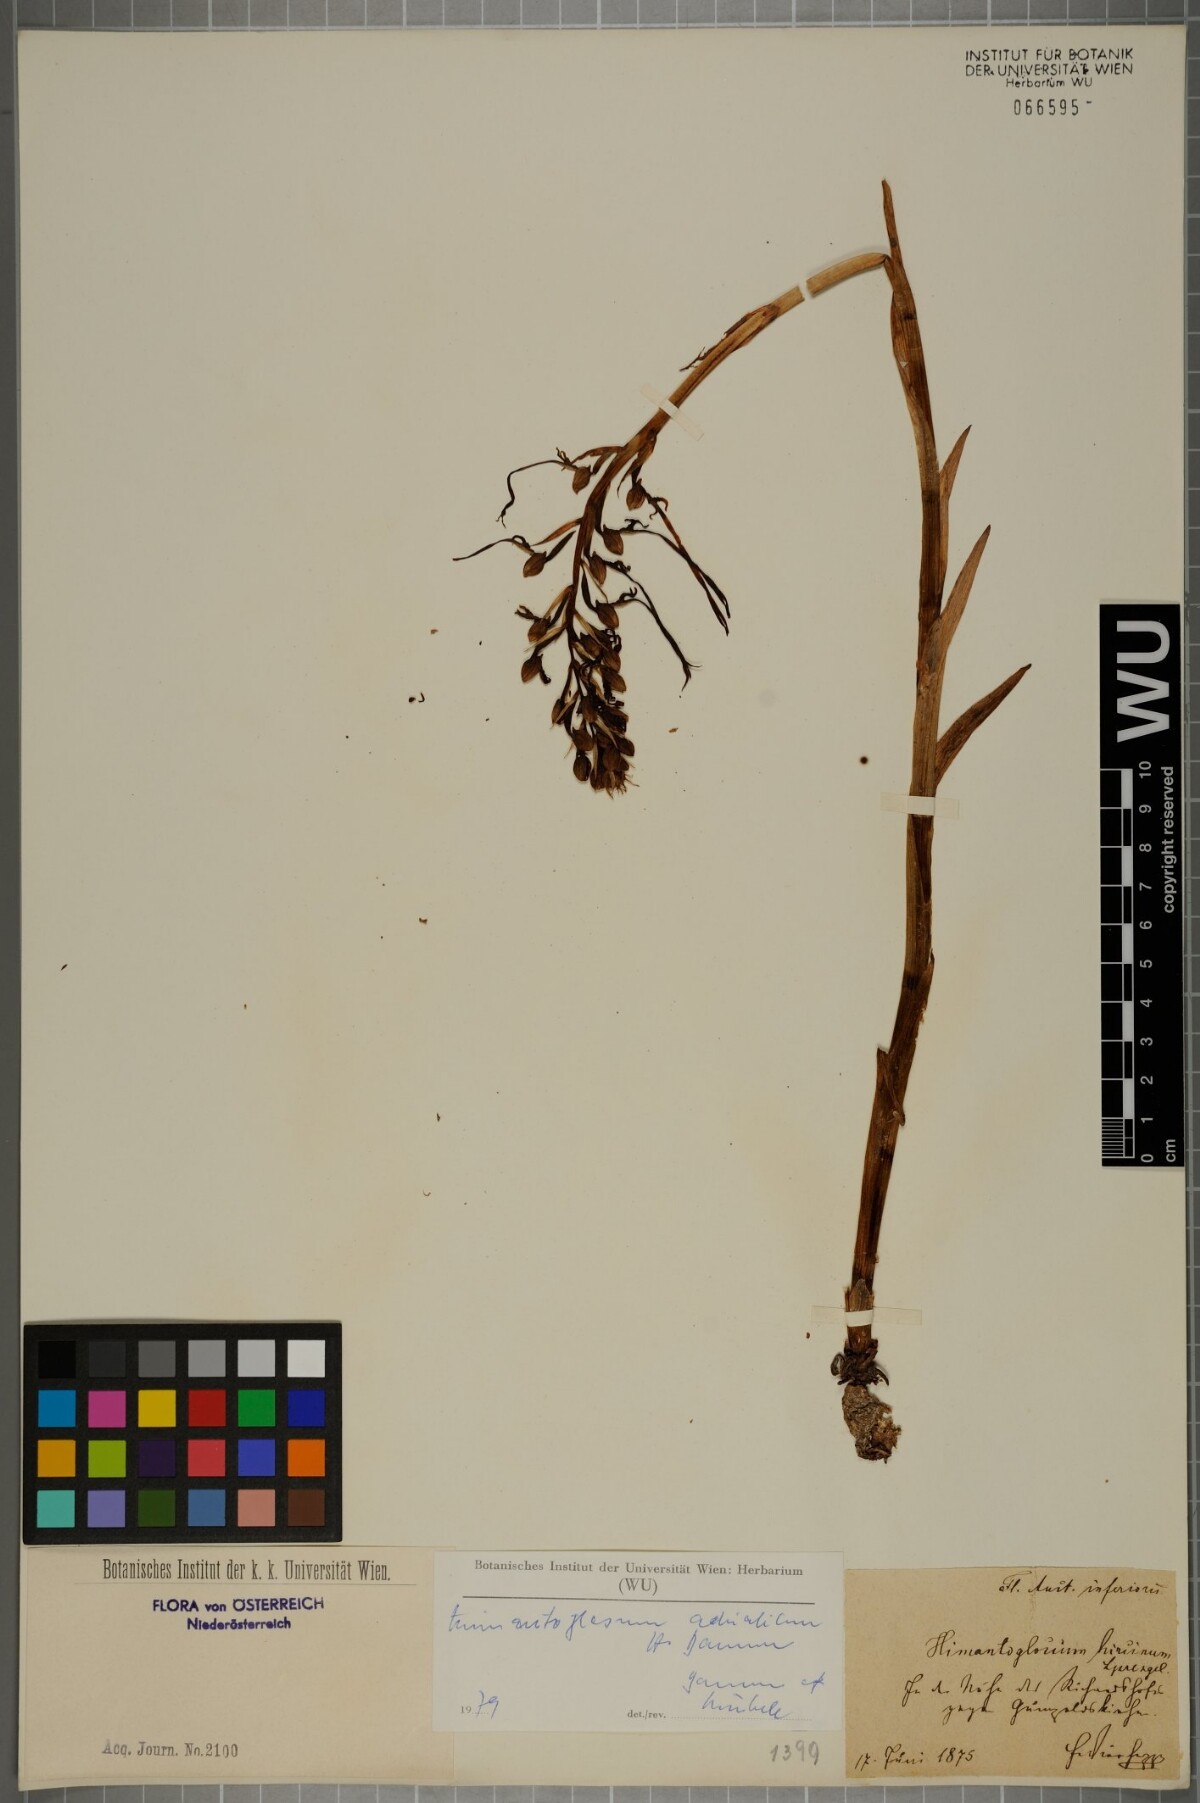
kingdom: Plantae
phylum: Tracheophyta
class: Liliopsida
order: Asparagales
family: Orchidaceae
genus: Himantoglossum
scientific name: Himantoglossum adriaticum
